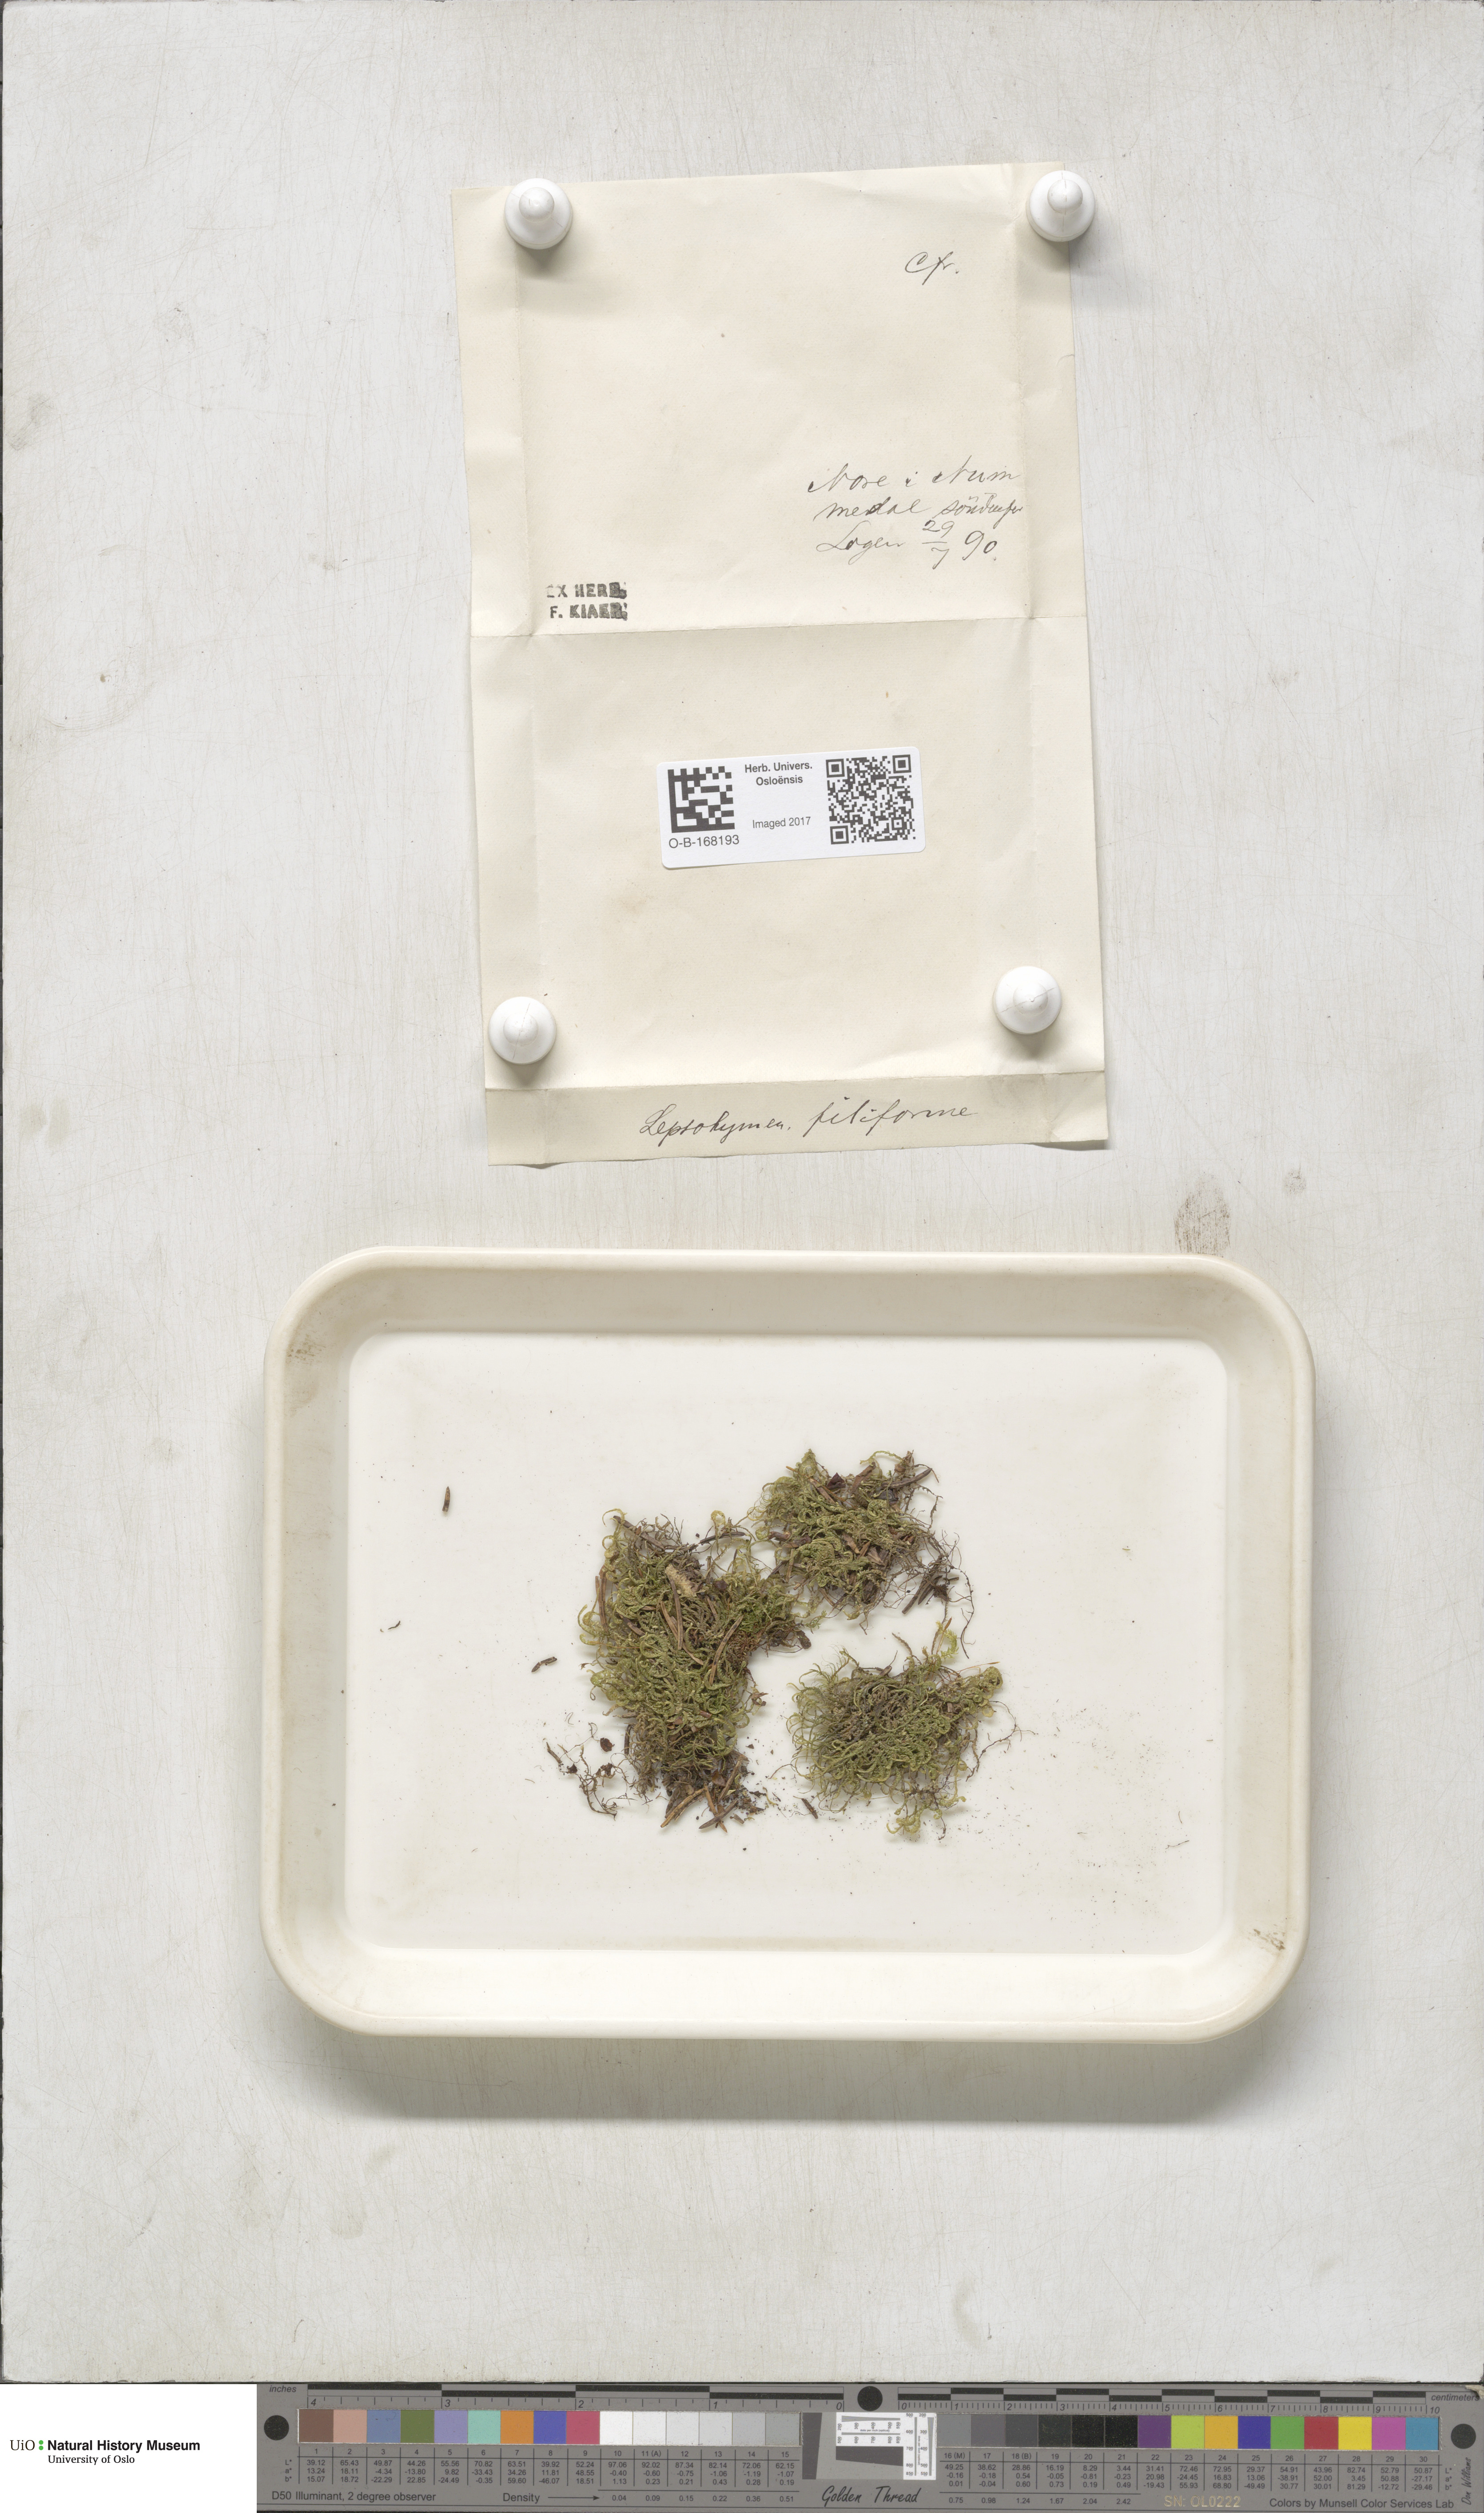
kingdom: Plantae
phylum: Bryophyta
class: Bryopsida
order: Hypnales
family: Pterigynandraceae
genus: Pterigynandrum
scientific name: Pterigynandrum filiforme
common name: Capillary wing moss
